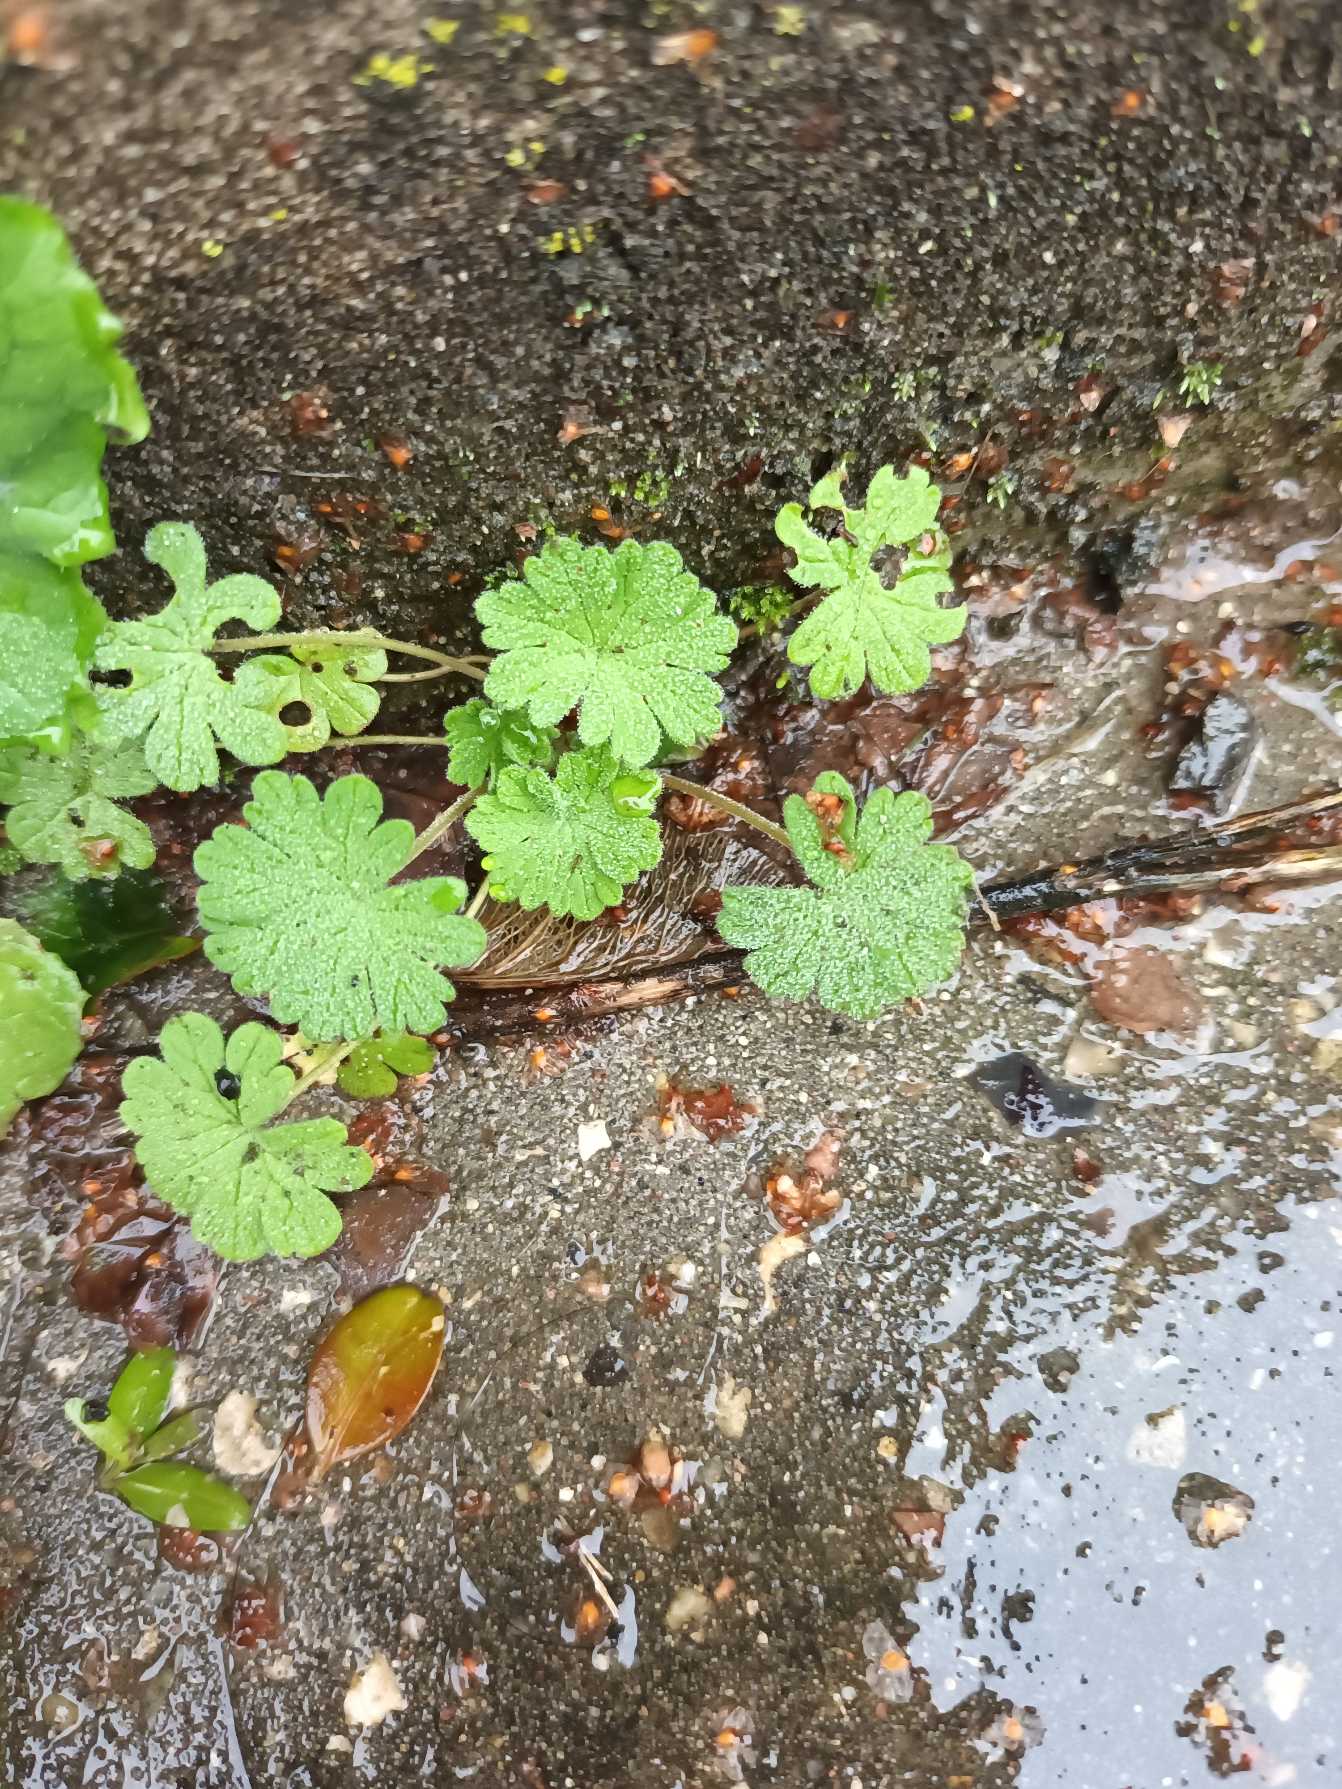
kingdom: Plantae
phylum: Tracheophyta
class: Magnoliopsida
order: Geraniales
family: Geraniaceae
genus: Geranium
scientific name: Geranium pusillum
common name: Liden storkenæb
